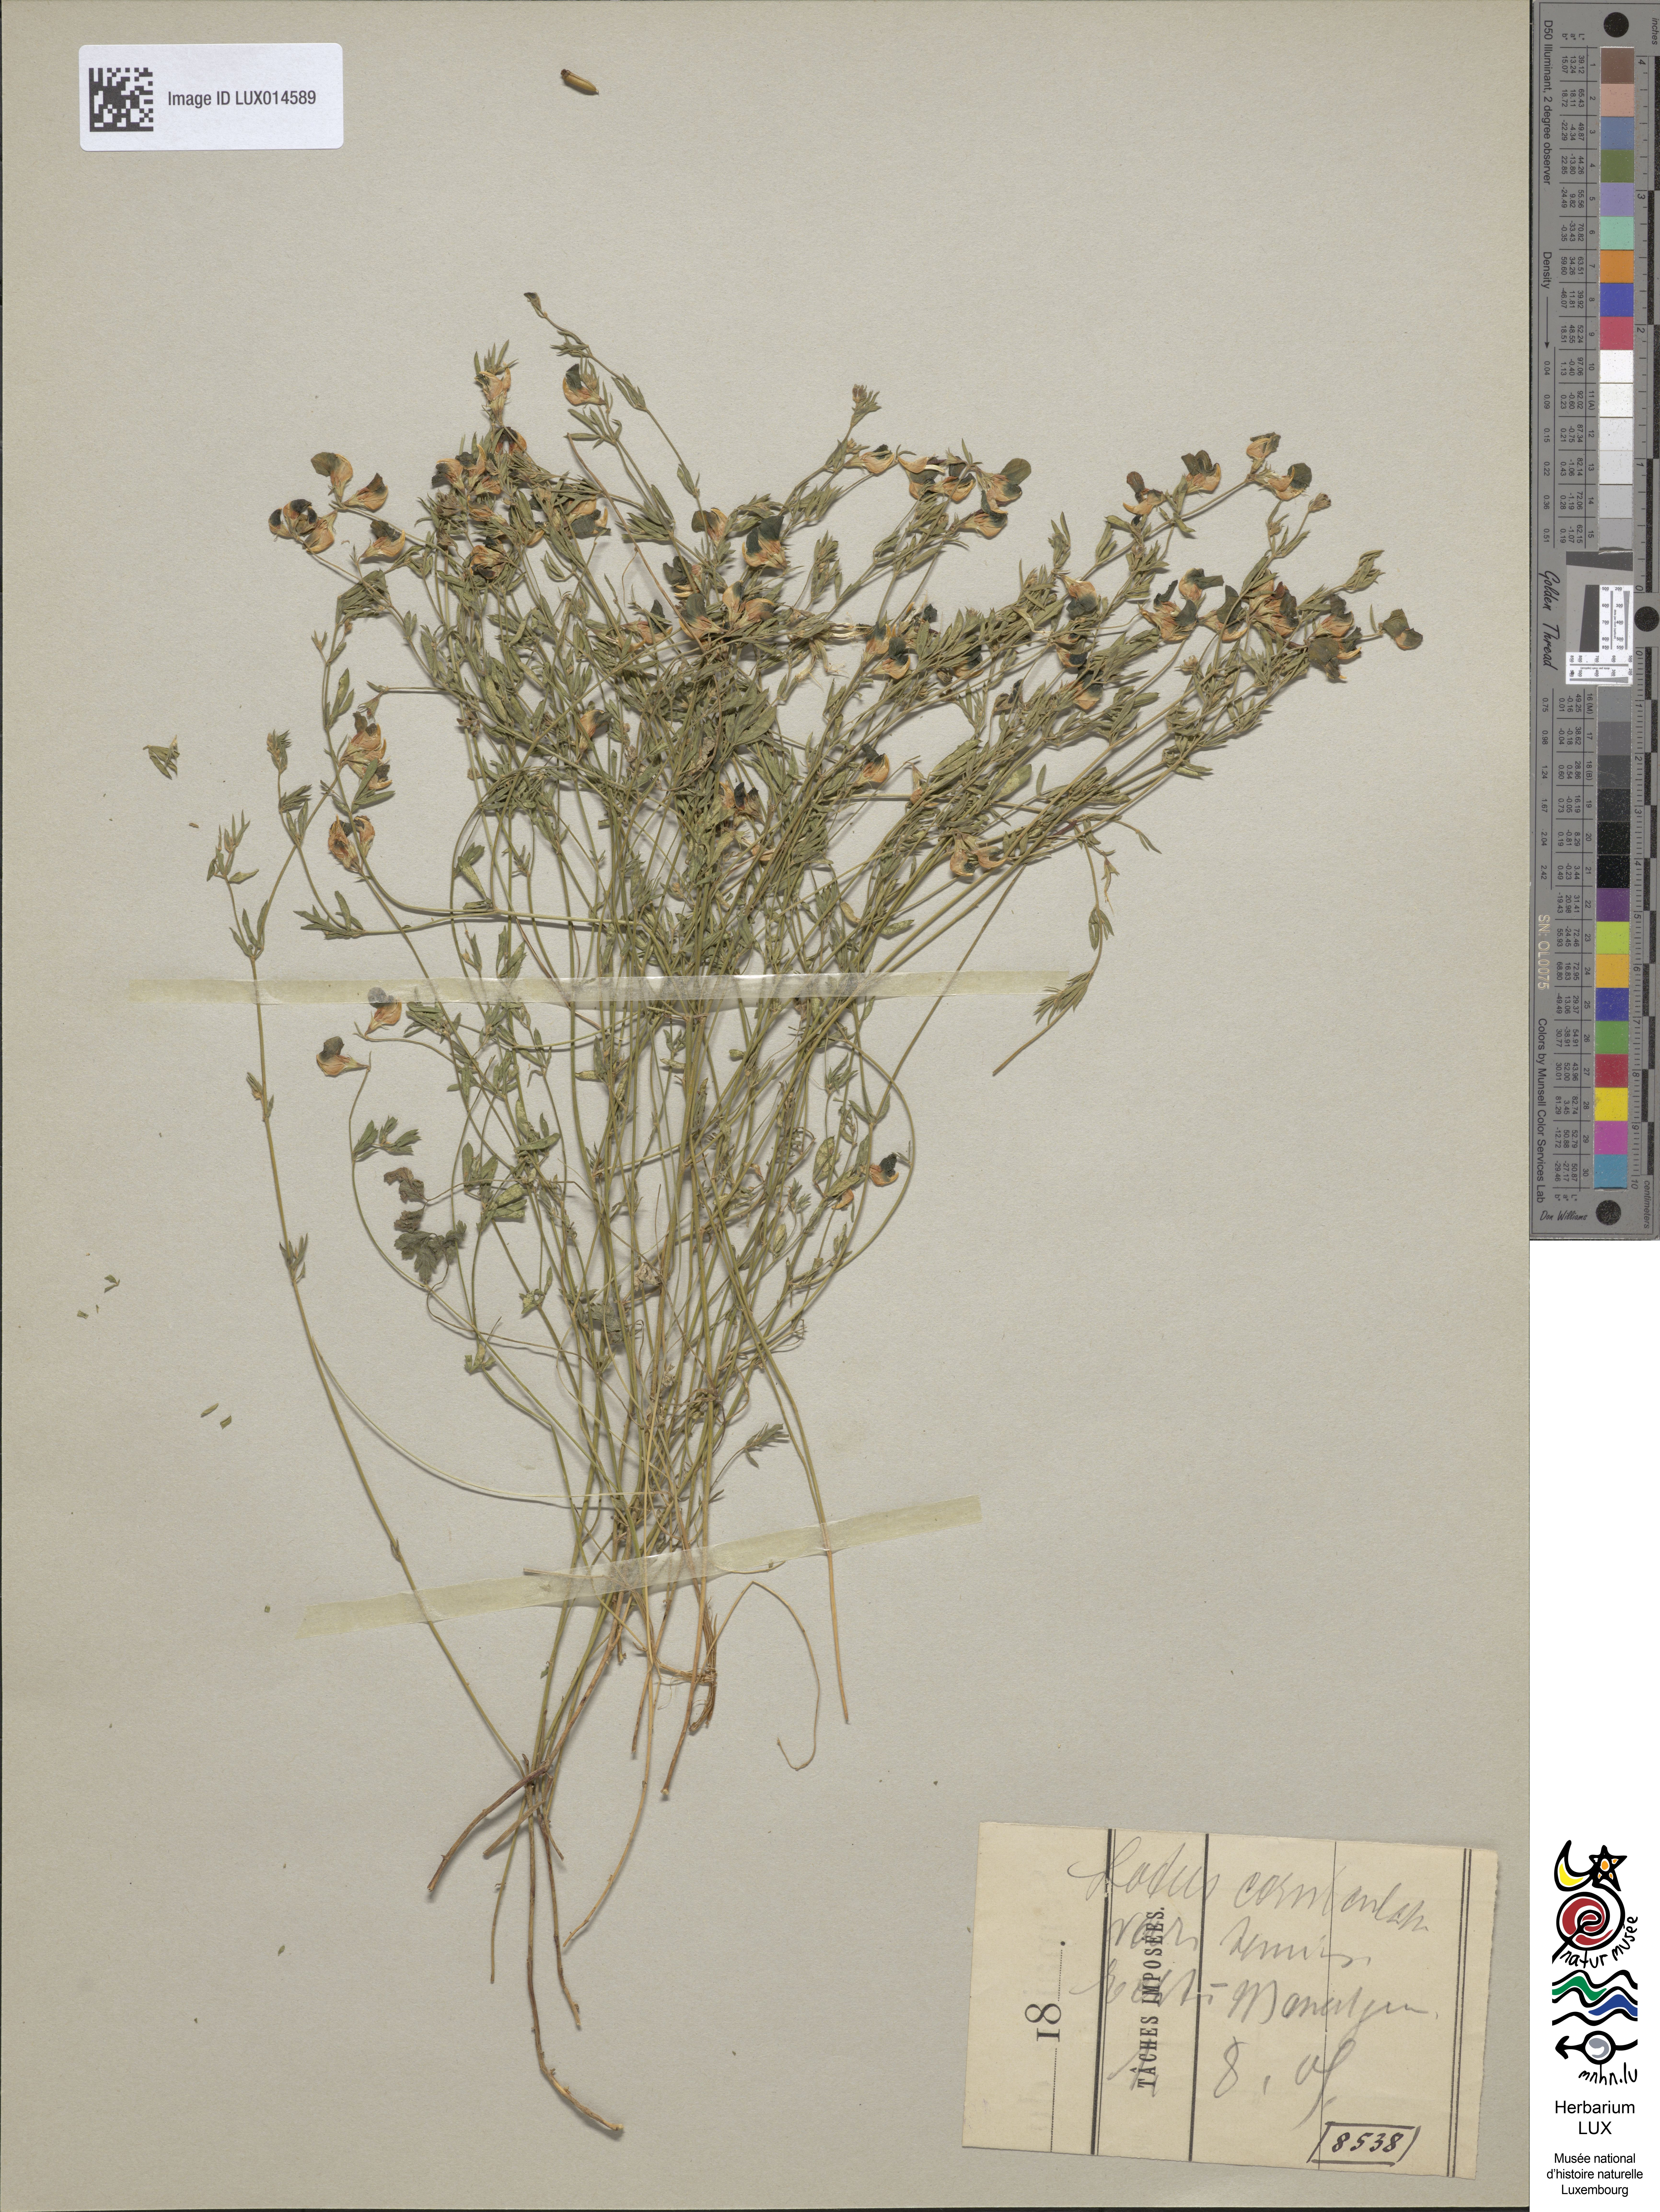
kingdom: Plantae
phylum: Tracheophyta
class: Magnoliopsida
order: Fabales
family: Fabaceae
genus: Lotus
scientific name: Lotus tenuis
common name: Narrow-leaved bird's-foot-trefoil
